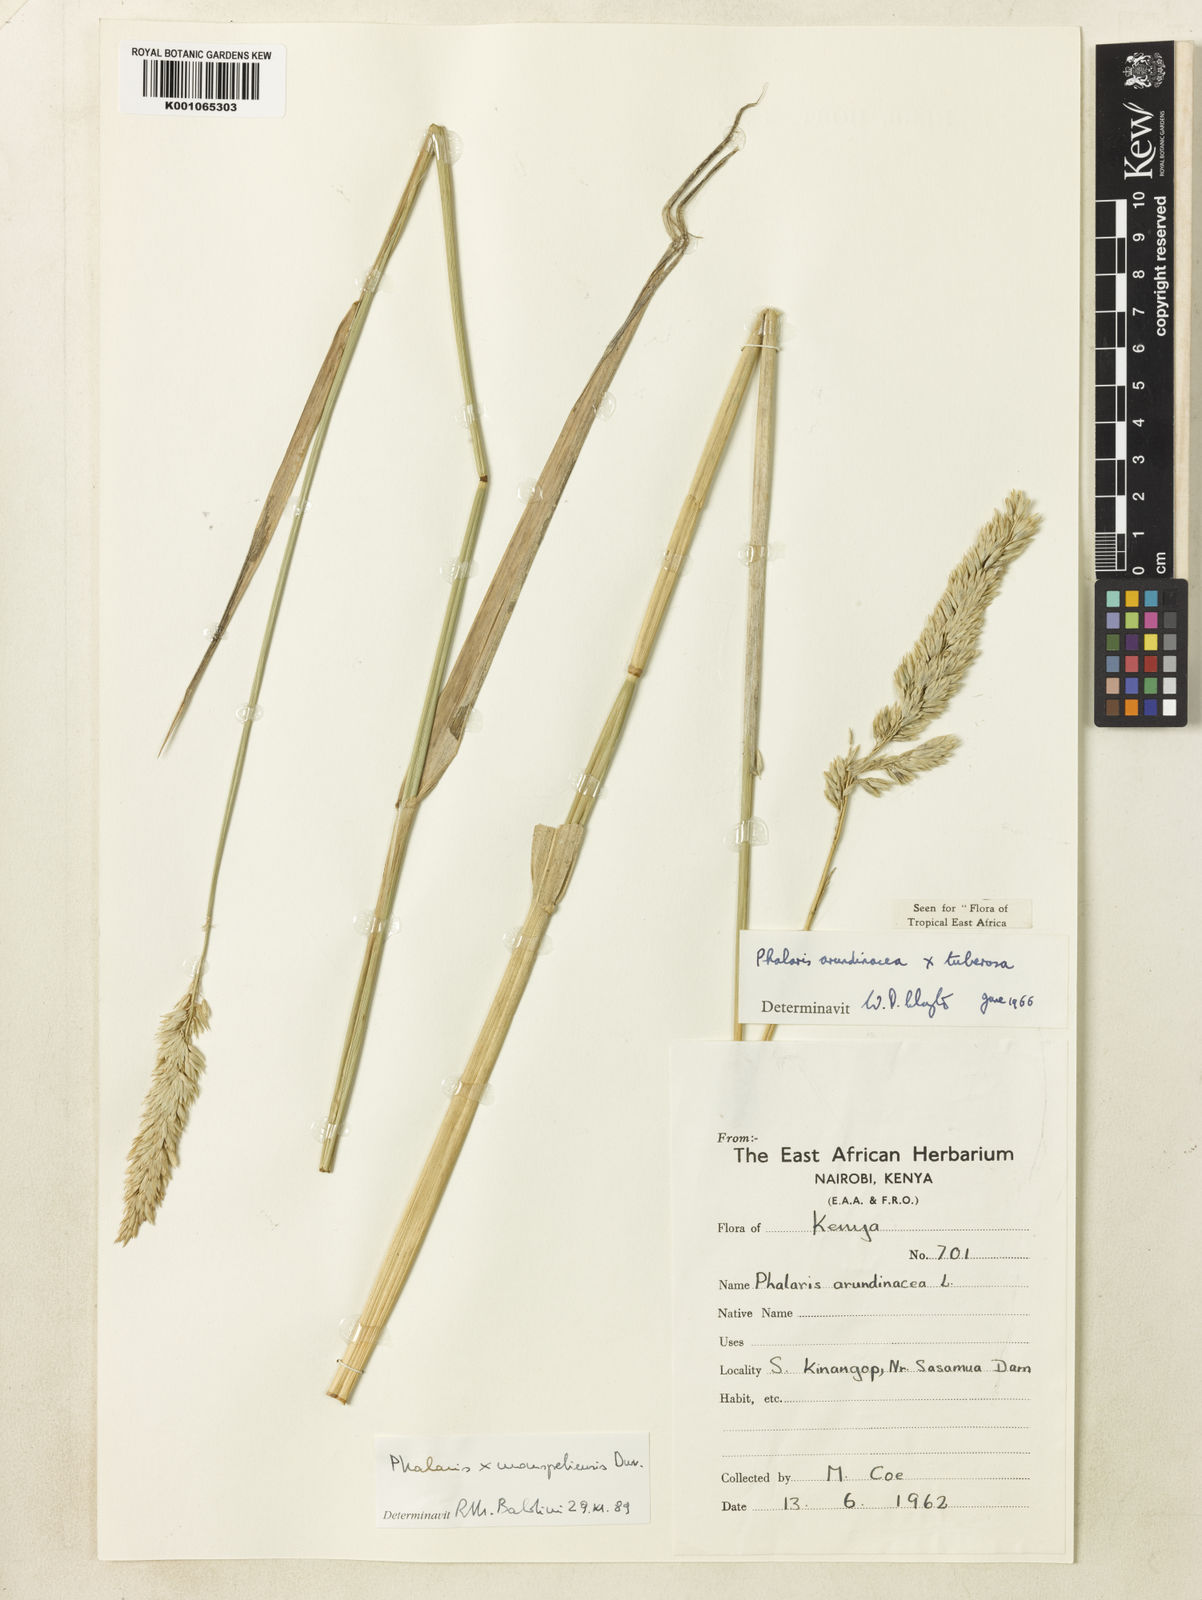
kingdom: Plantae
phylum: Tracheophyta
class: Liliopsida
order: Poales
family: Poaceae
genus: Phalaris
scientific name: Phalaris arundinacea
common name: Reed canary-grass
